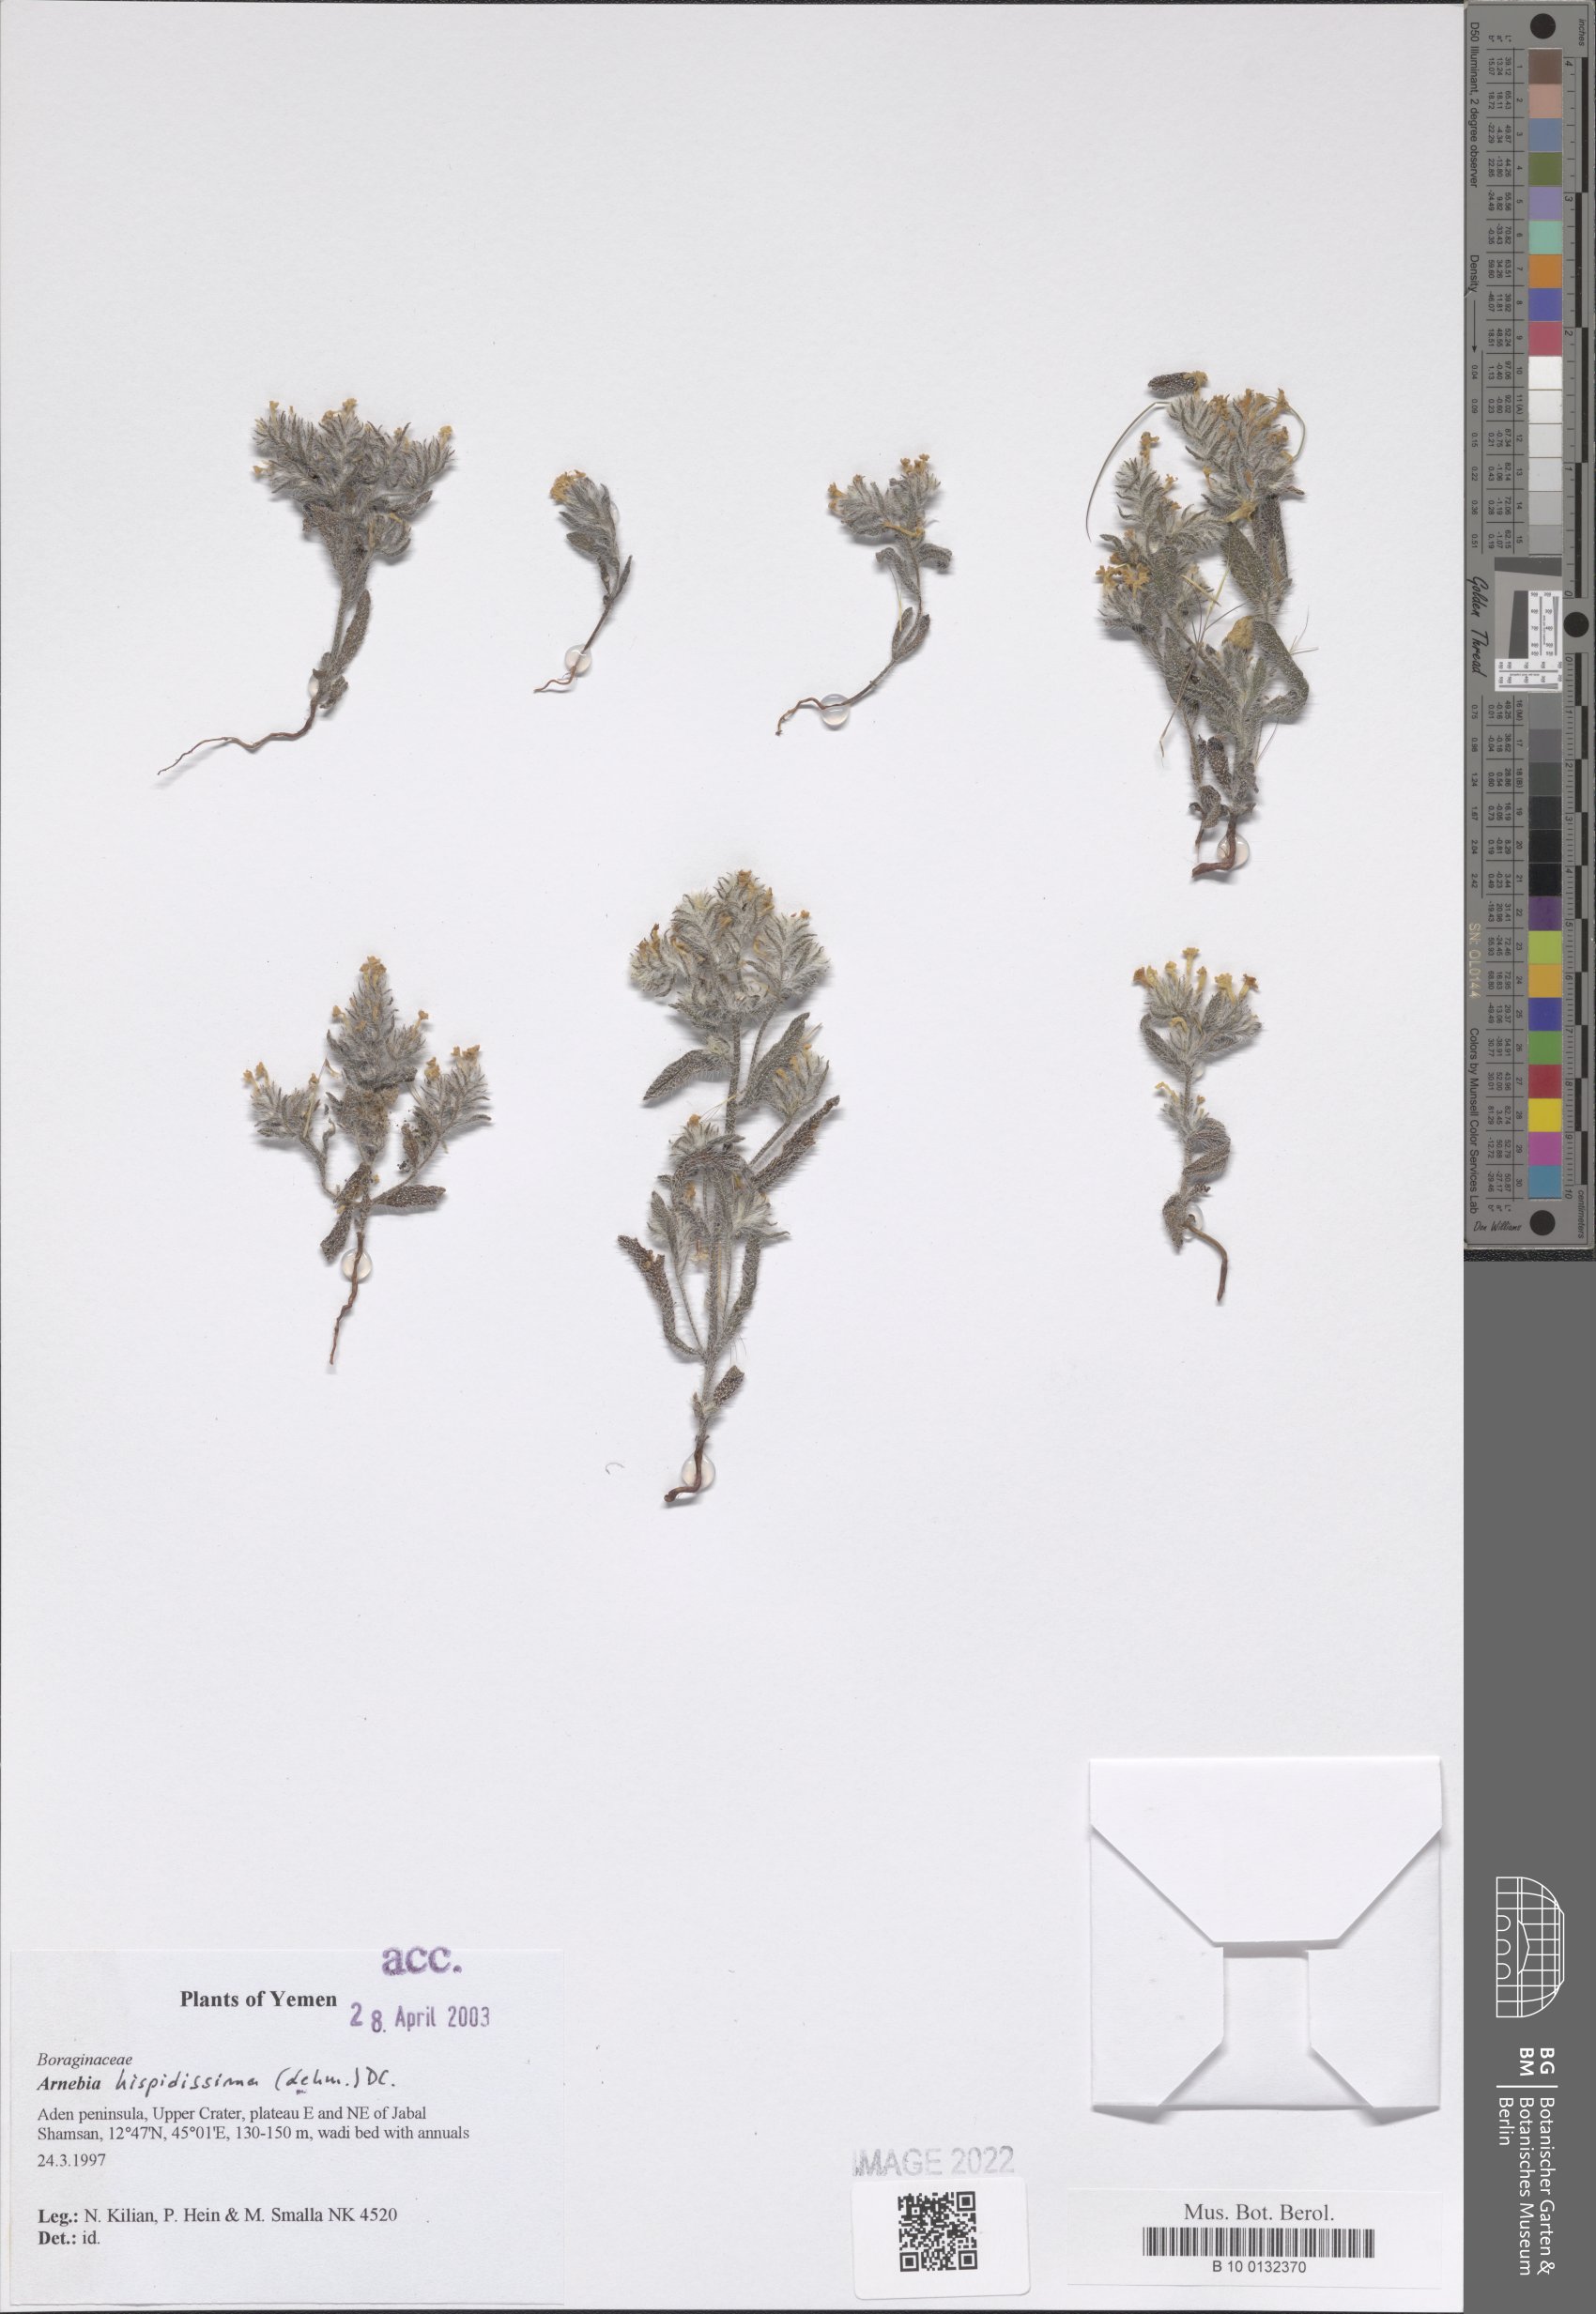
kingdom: Plantae
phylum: Tracheophyta
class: Magnoliopsida
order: Boraginales
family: Boraginaceae
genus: Arnebia
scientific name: Arnebia hispidissima
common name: Arabian-primrose
